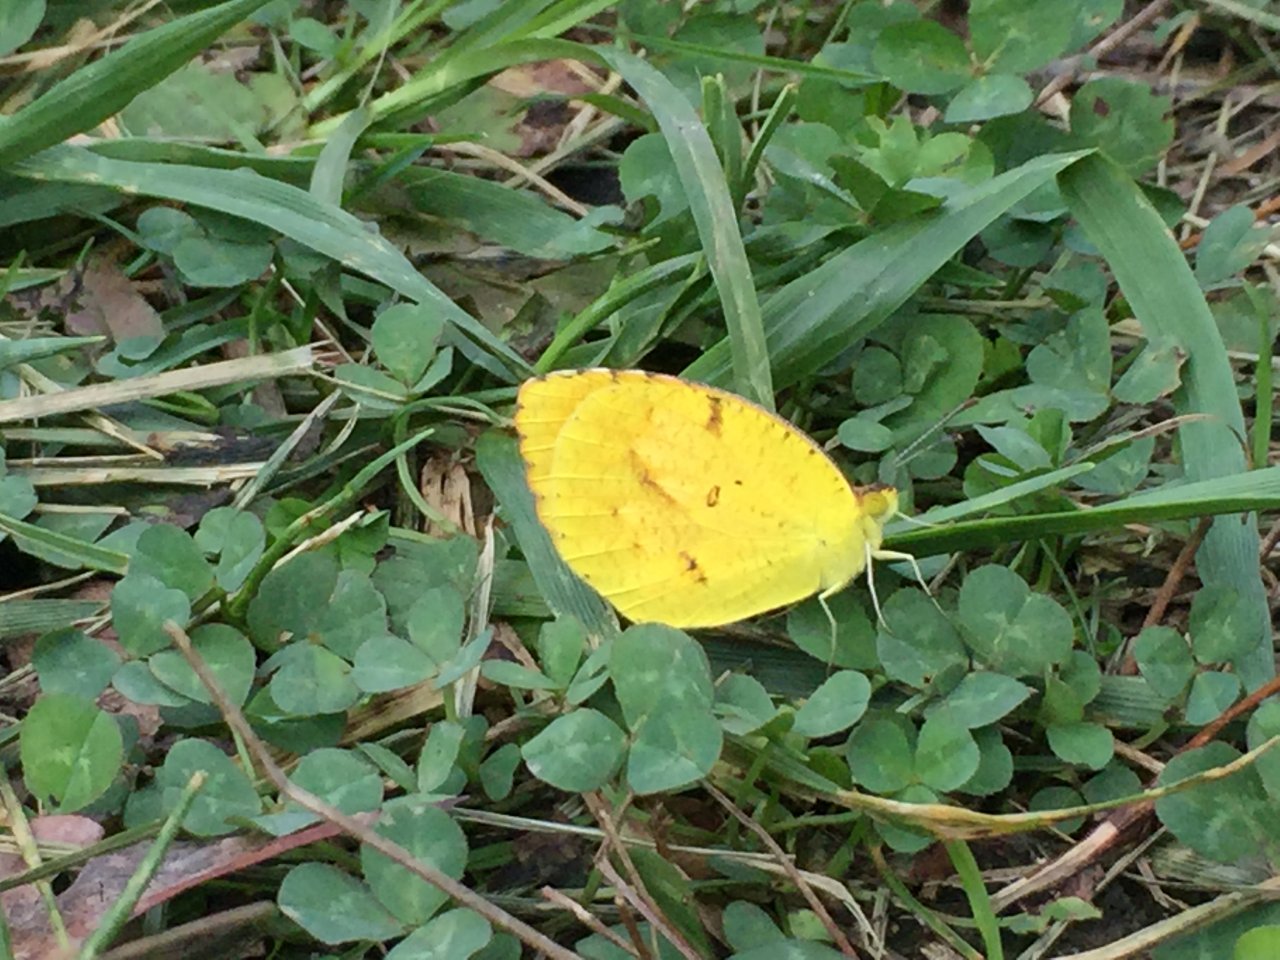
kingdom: Animalia
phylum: Arthropoda
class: Insecta
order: Lepidoptera
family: Pieridae
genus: Abaeis
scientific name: Abaeis nicippe
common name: Sleepy Orange
